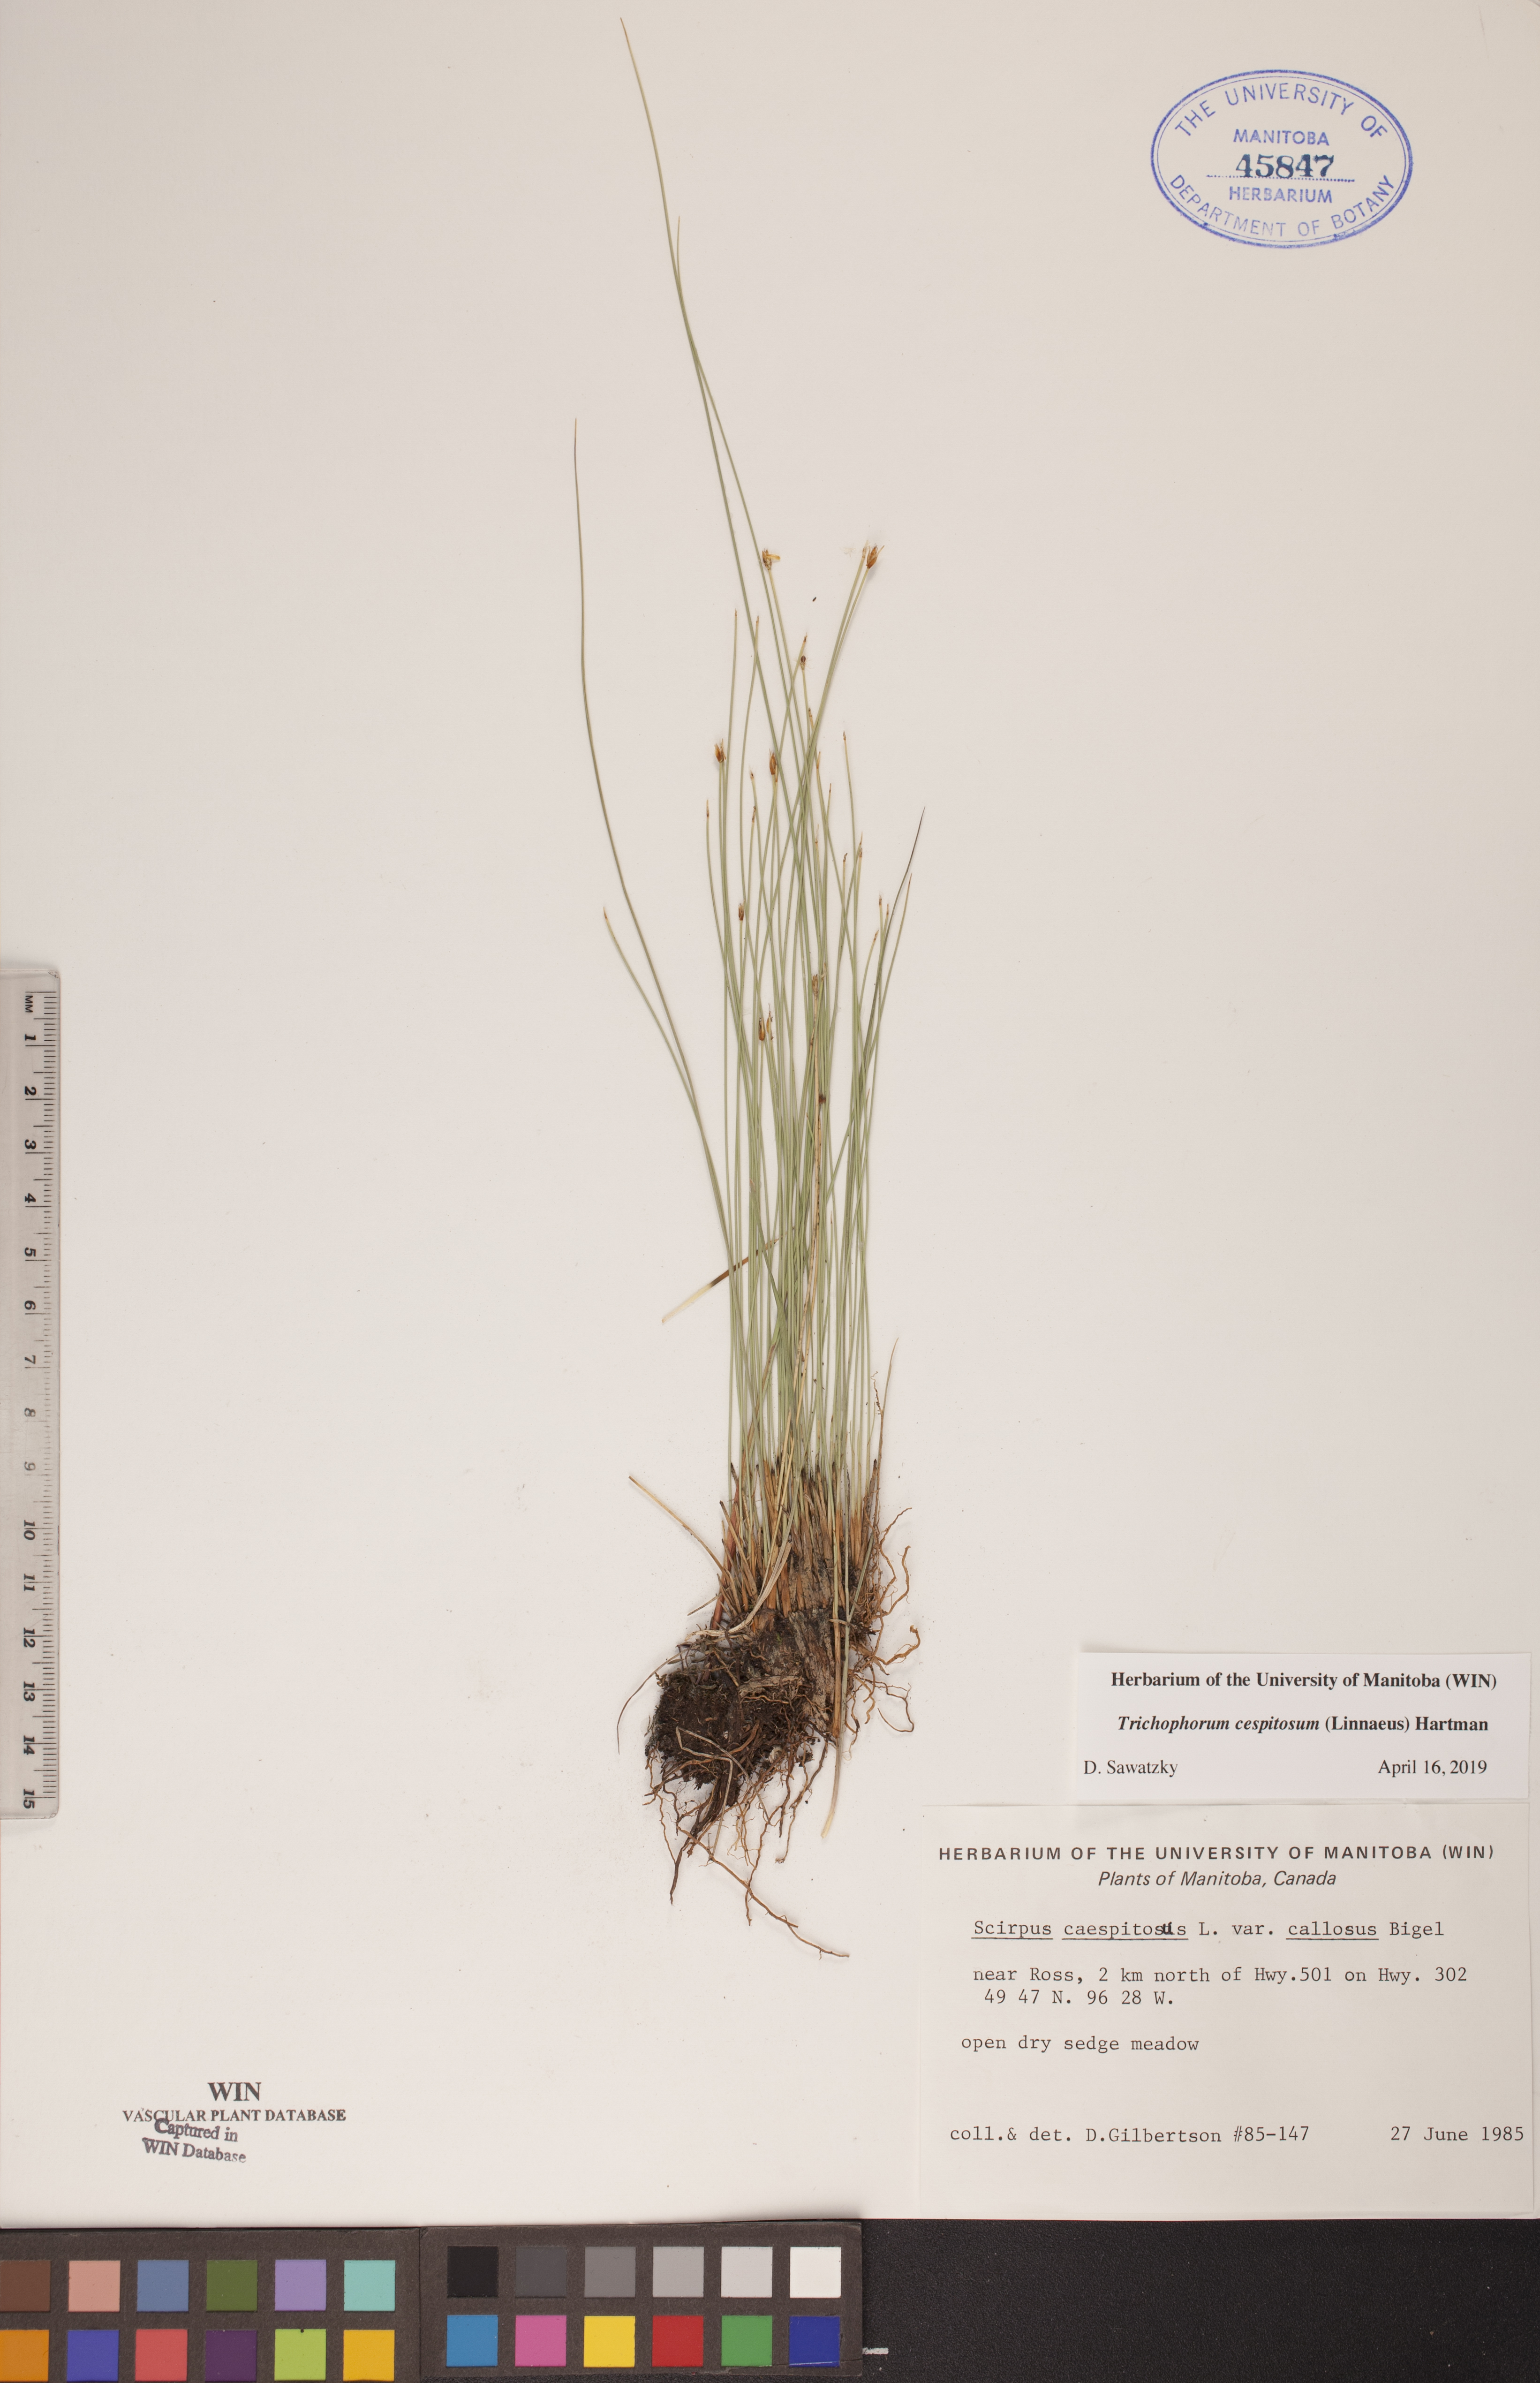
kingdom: Plantae
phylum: Tracheophyta
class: Liliopsida
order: Poales
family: Cyperaceae
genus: Trichophorum
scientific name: Trichophorum cespitosum
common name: Cespitose bulrush
